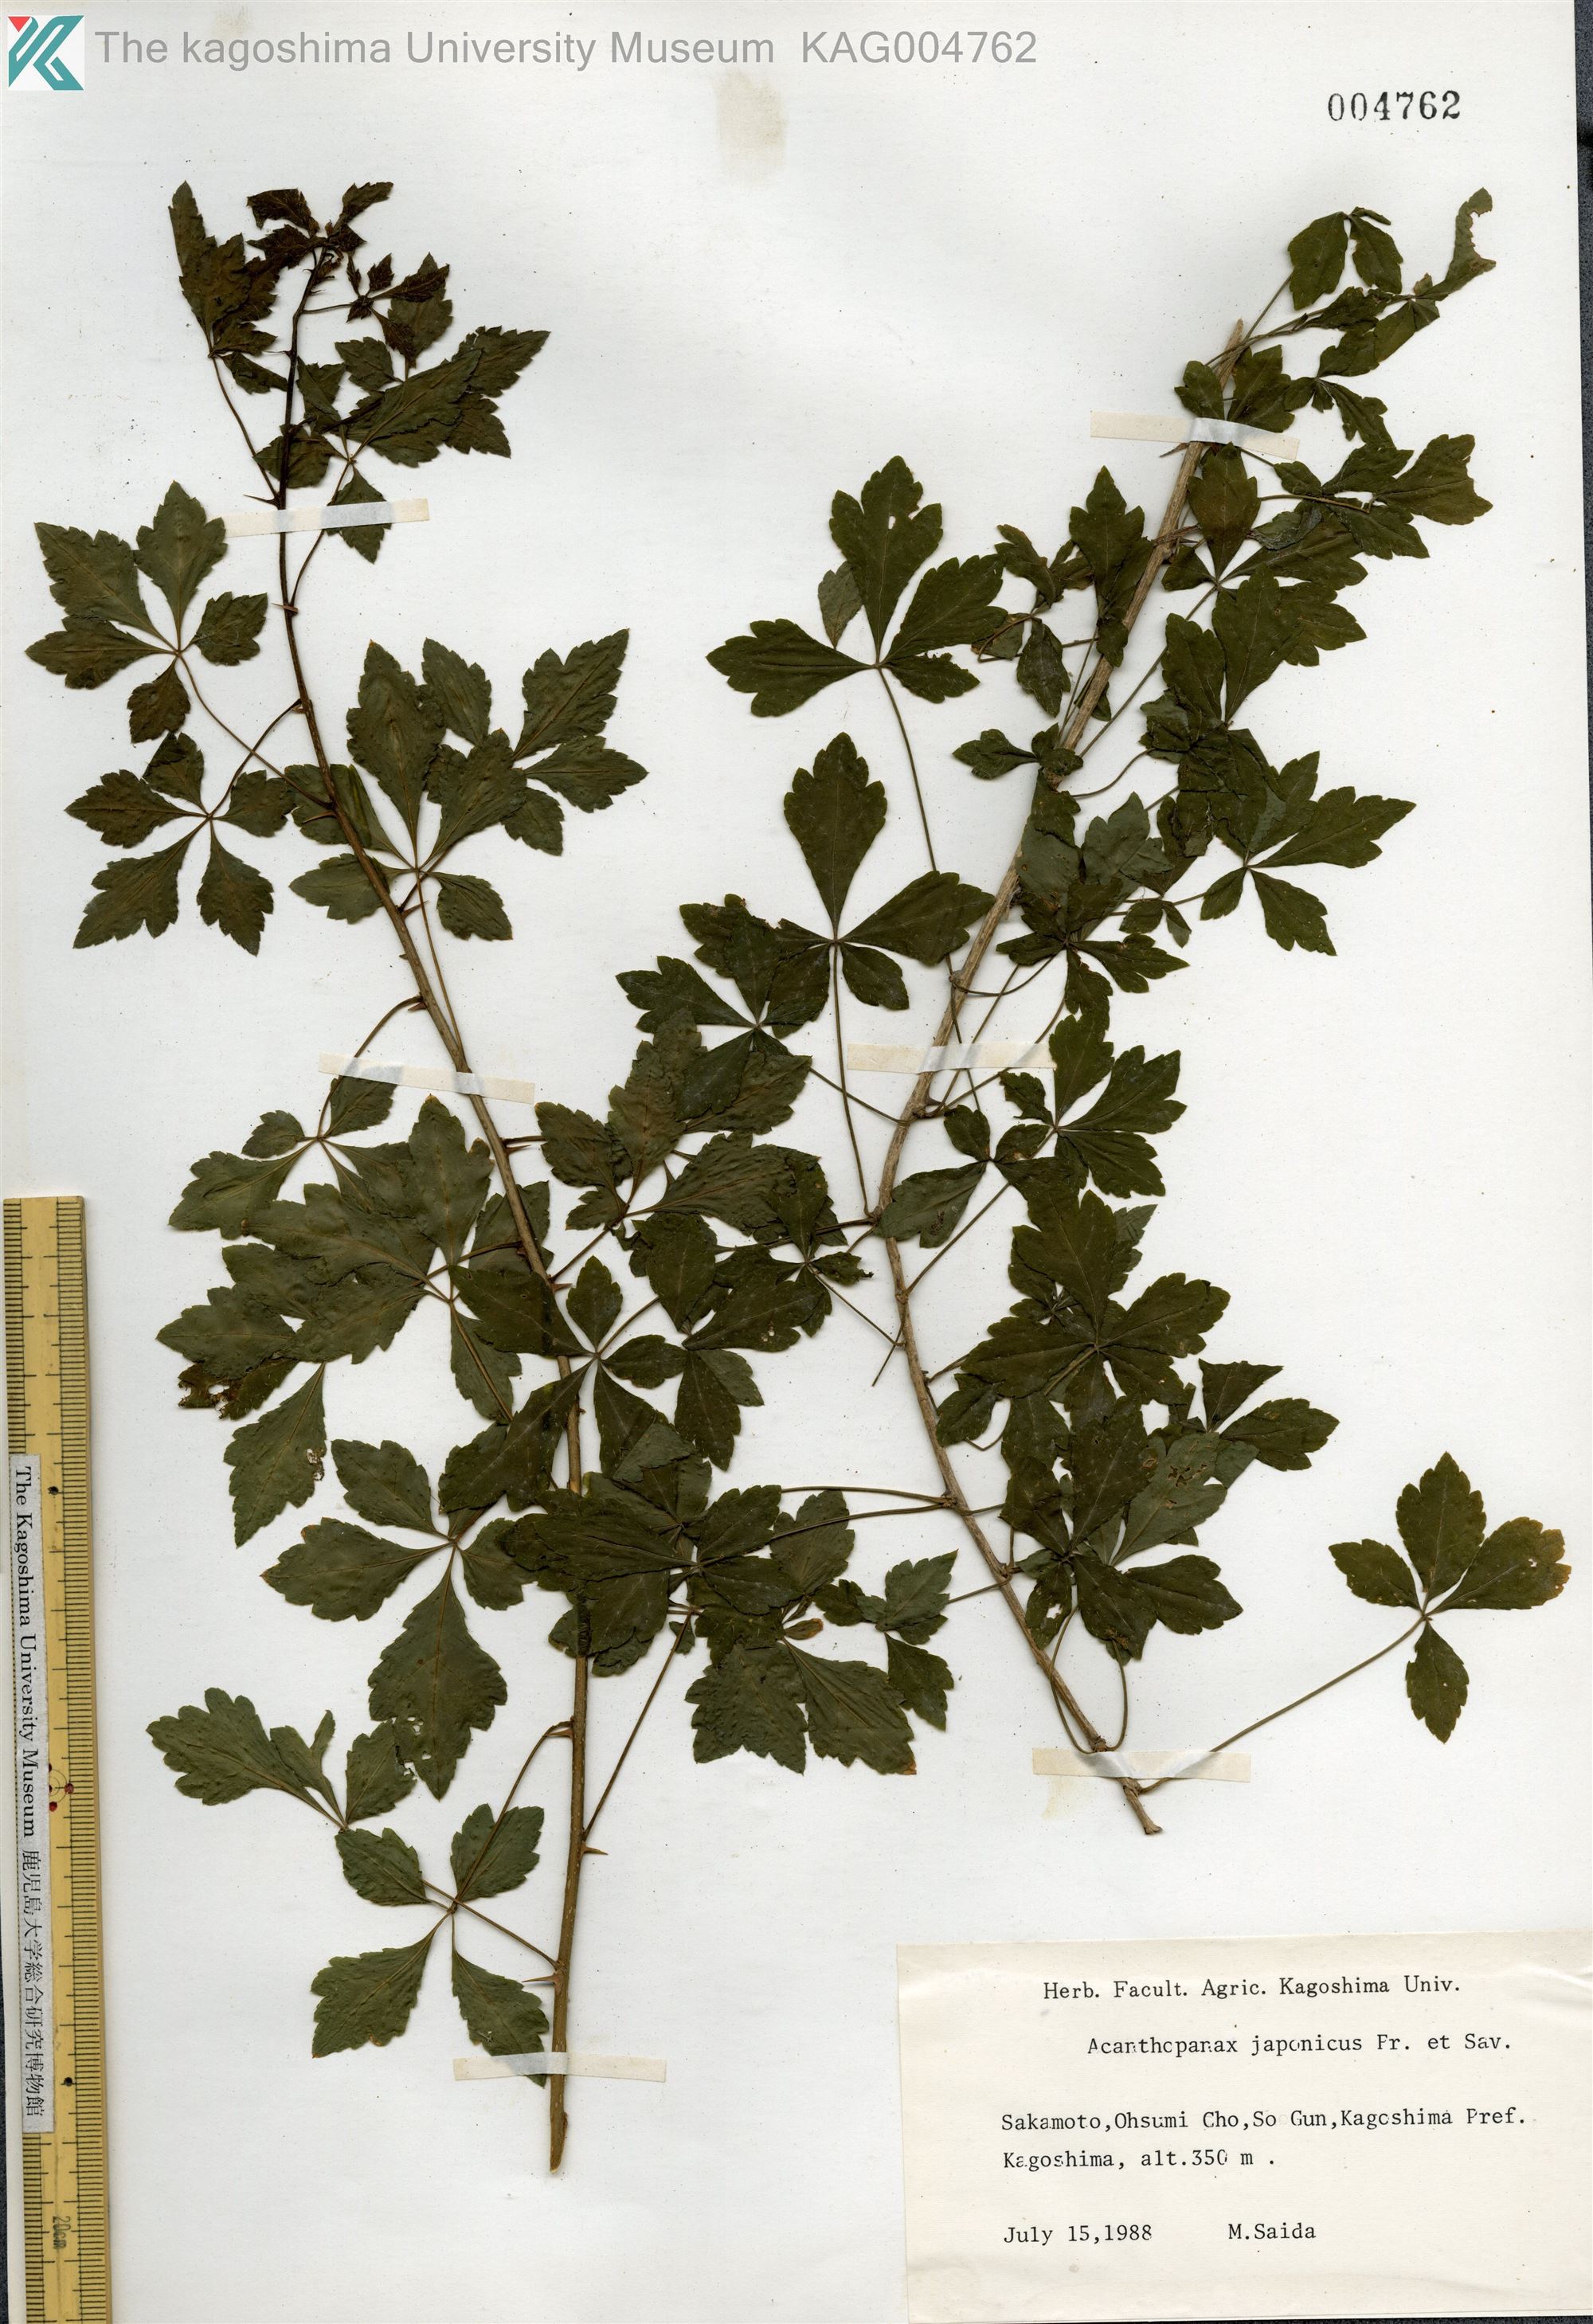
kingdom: Plantae
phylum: Tracheophyta
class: Magnoliopsida
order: Apiales
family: Araliaceae
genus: Eleutherococcus
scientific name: Eleutherococcus japonicus
